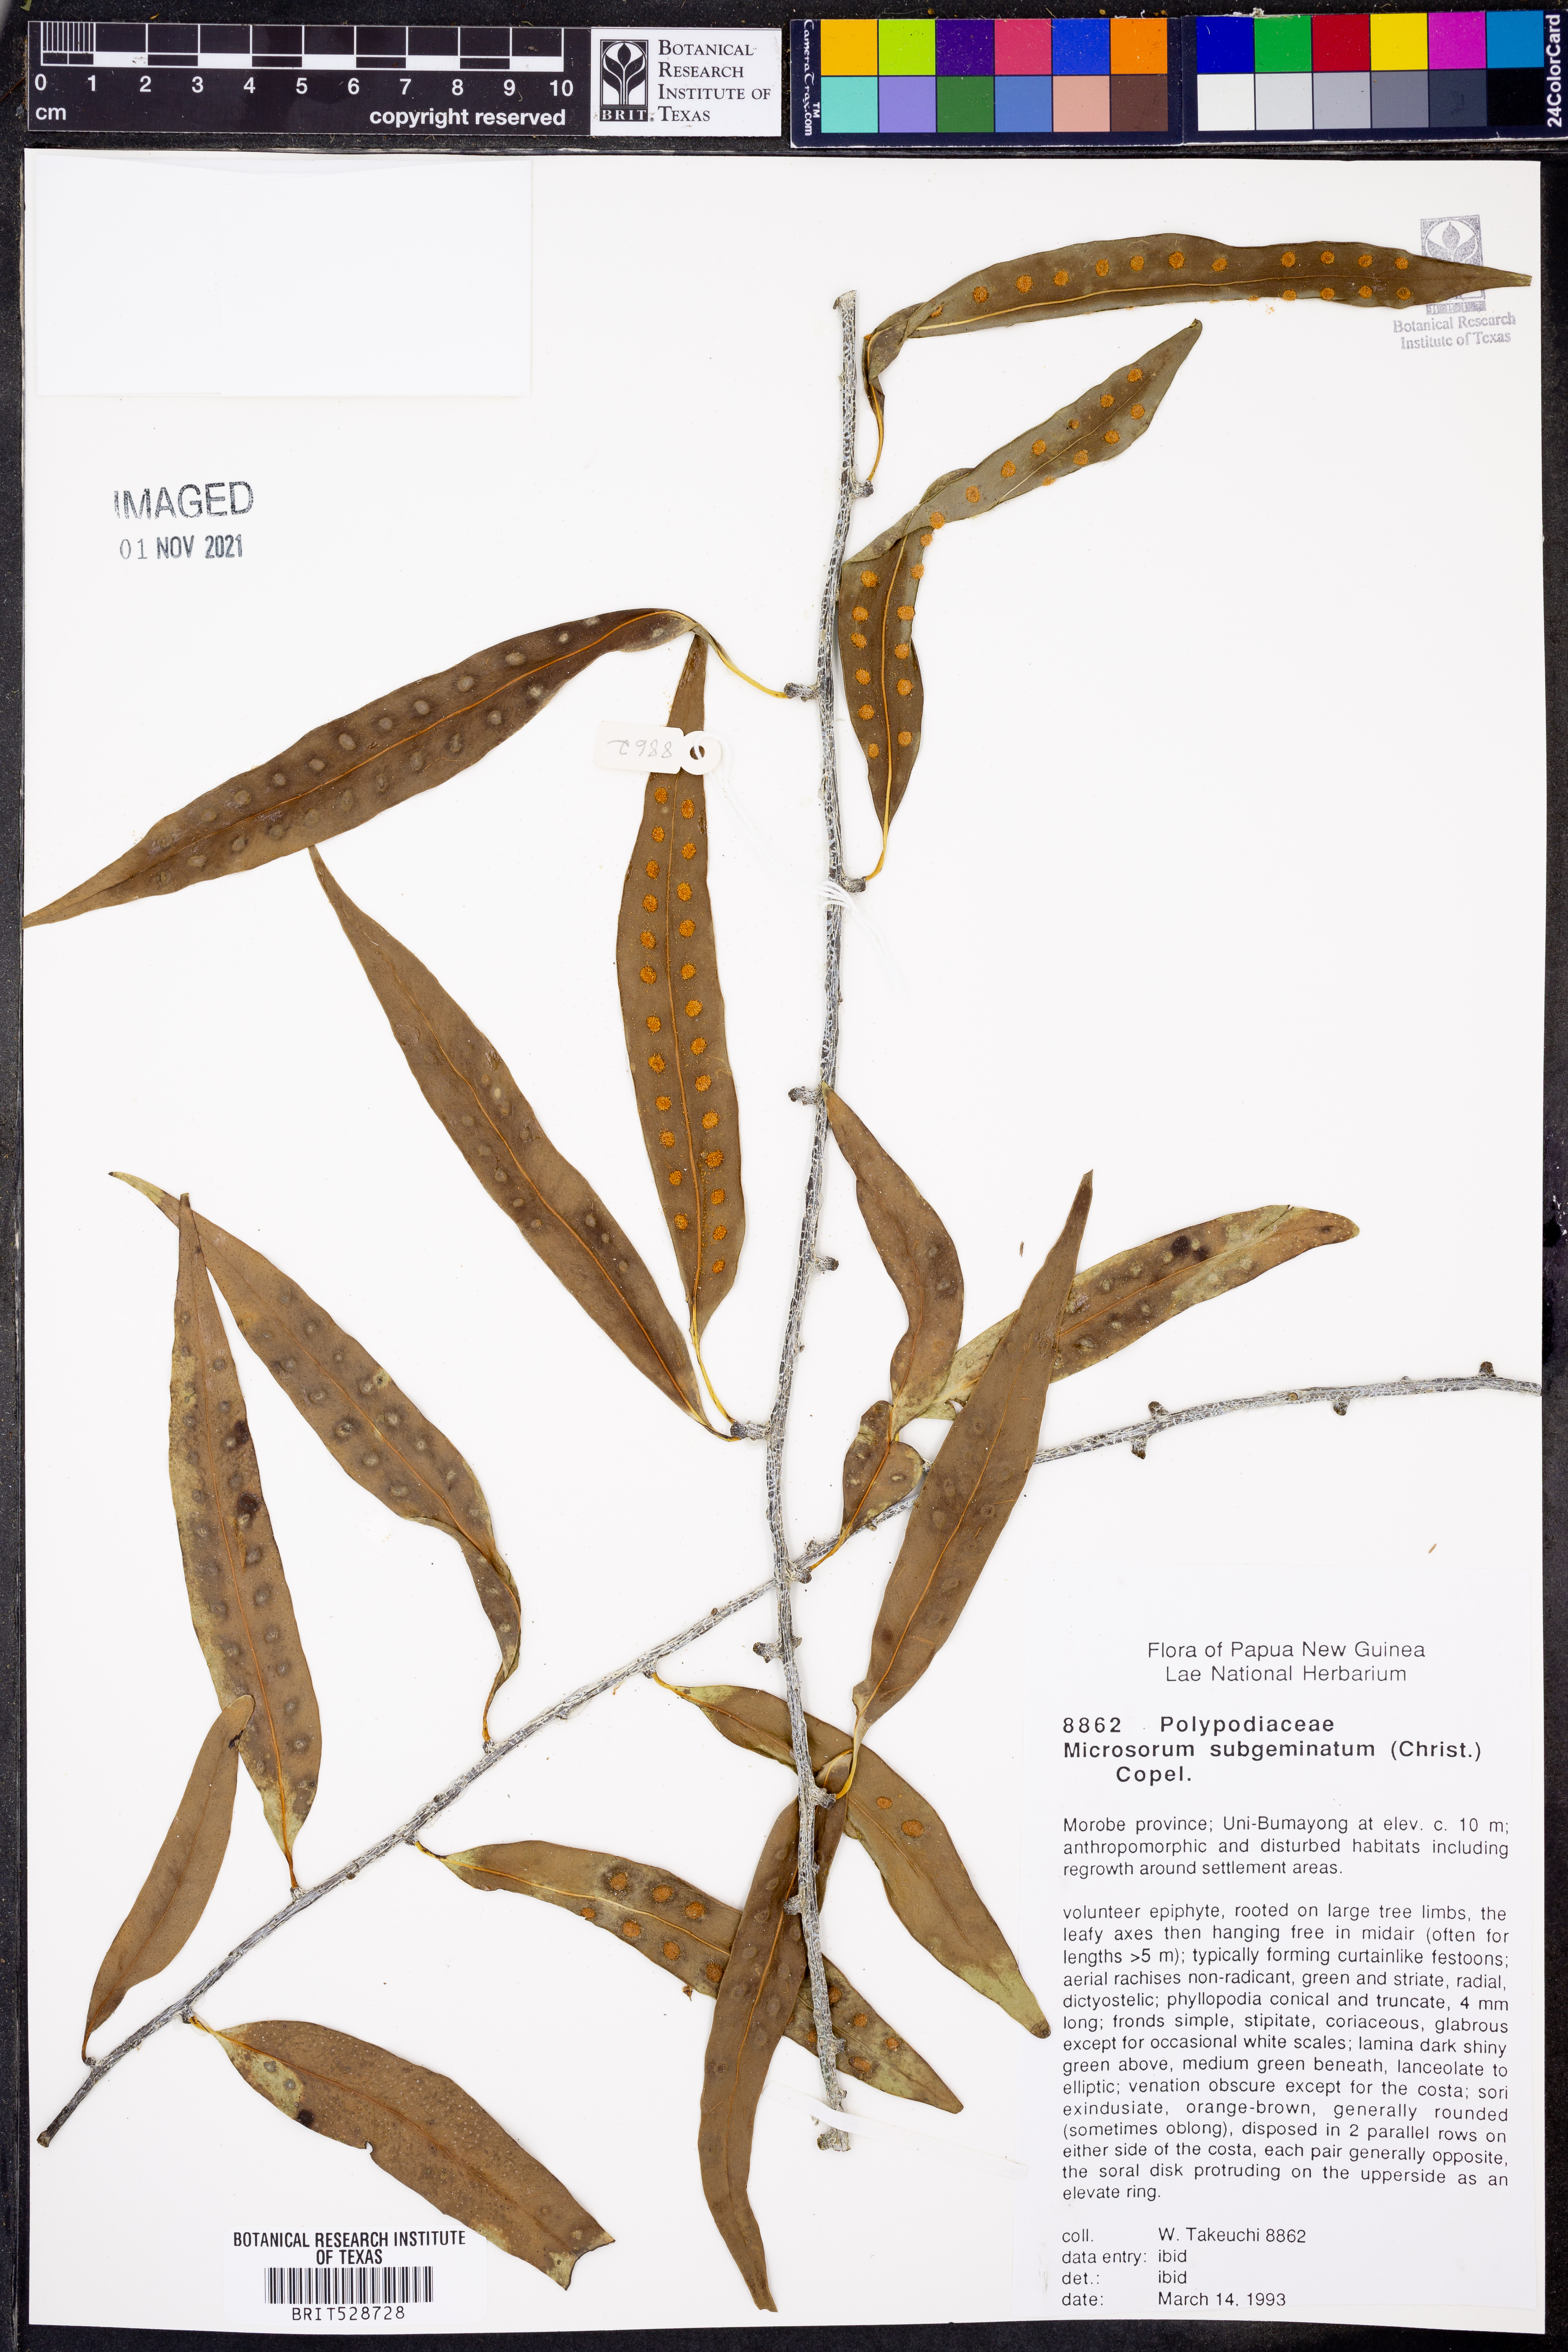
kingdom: Plantae
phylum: Tracheophyta
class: Polypodiopsida
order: Polypodiales
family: Polypodiaceae
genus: Microsorum
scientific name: Microsorum papuanum
